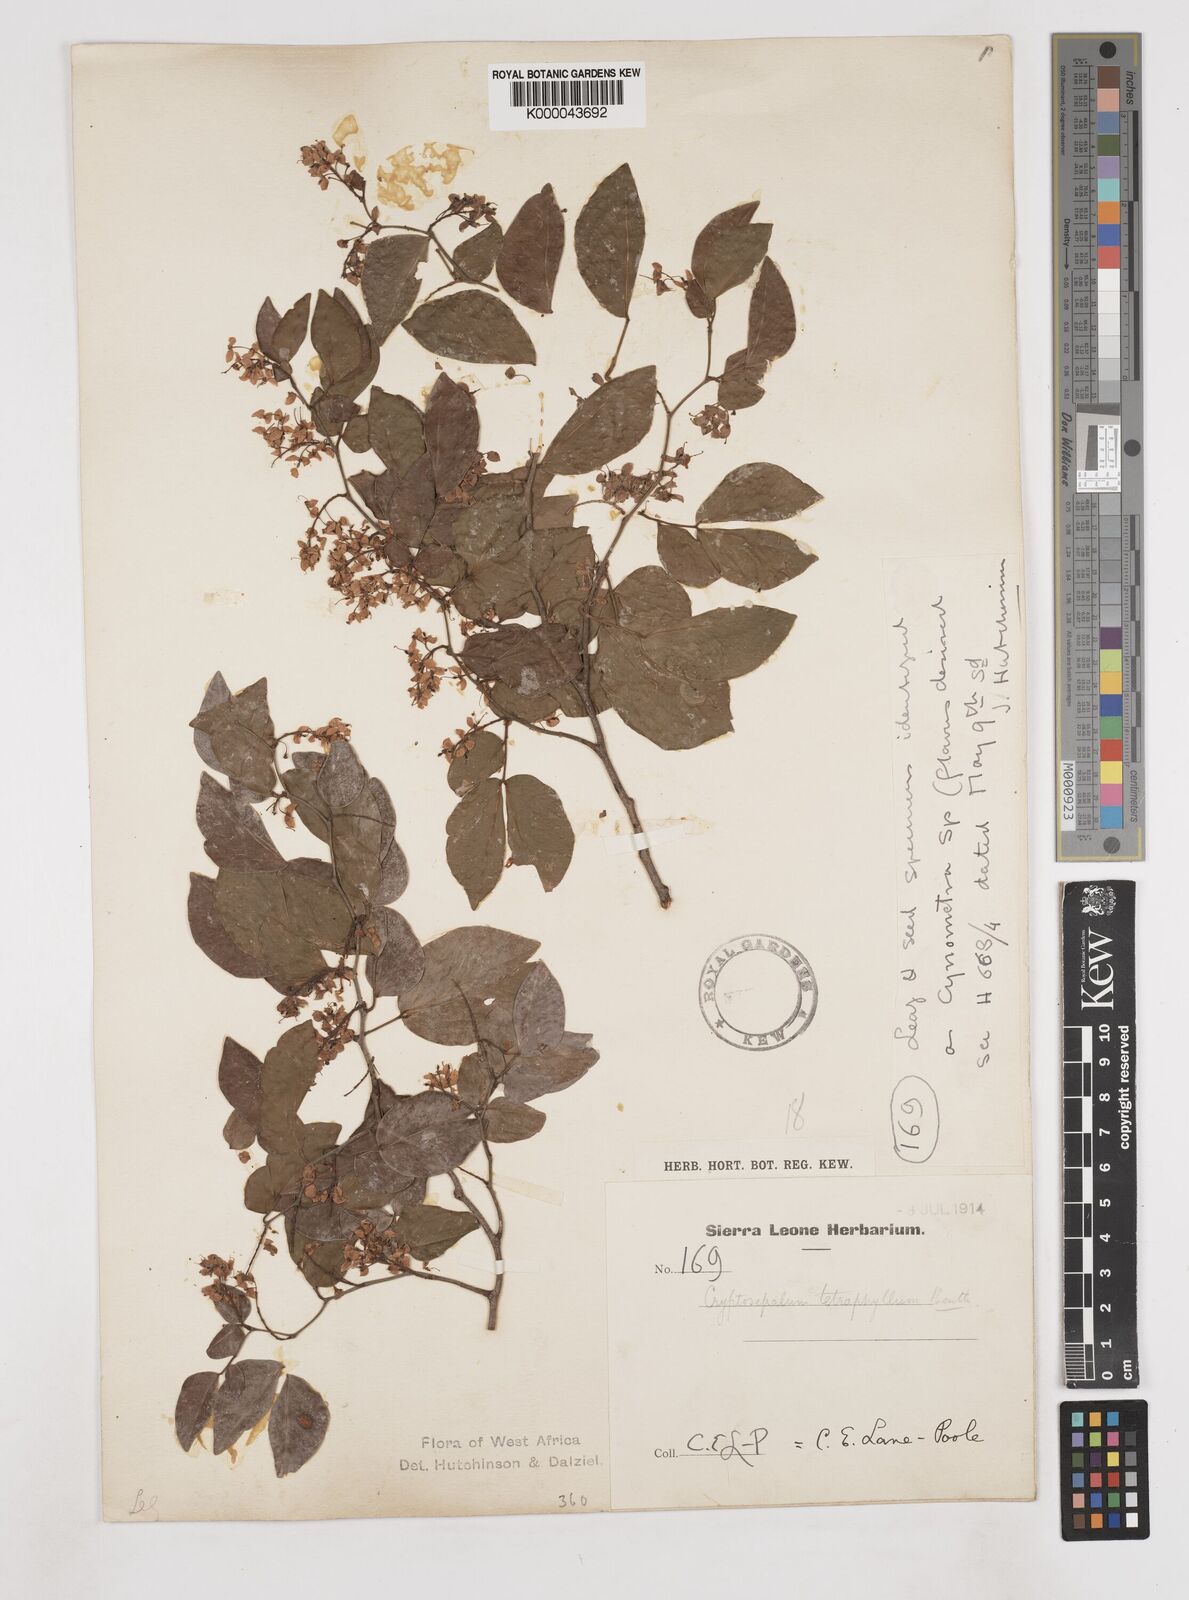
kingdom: Plantae
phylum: Tracheophyta
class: Magnoliopsida
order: Fabales
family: Fabaceae
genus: Cryptosepalum
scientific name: Cryptosepalum tetraphyllum
